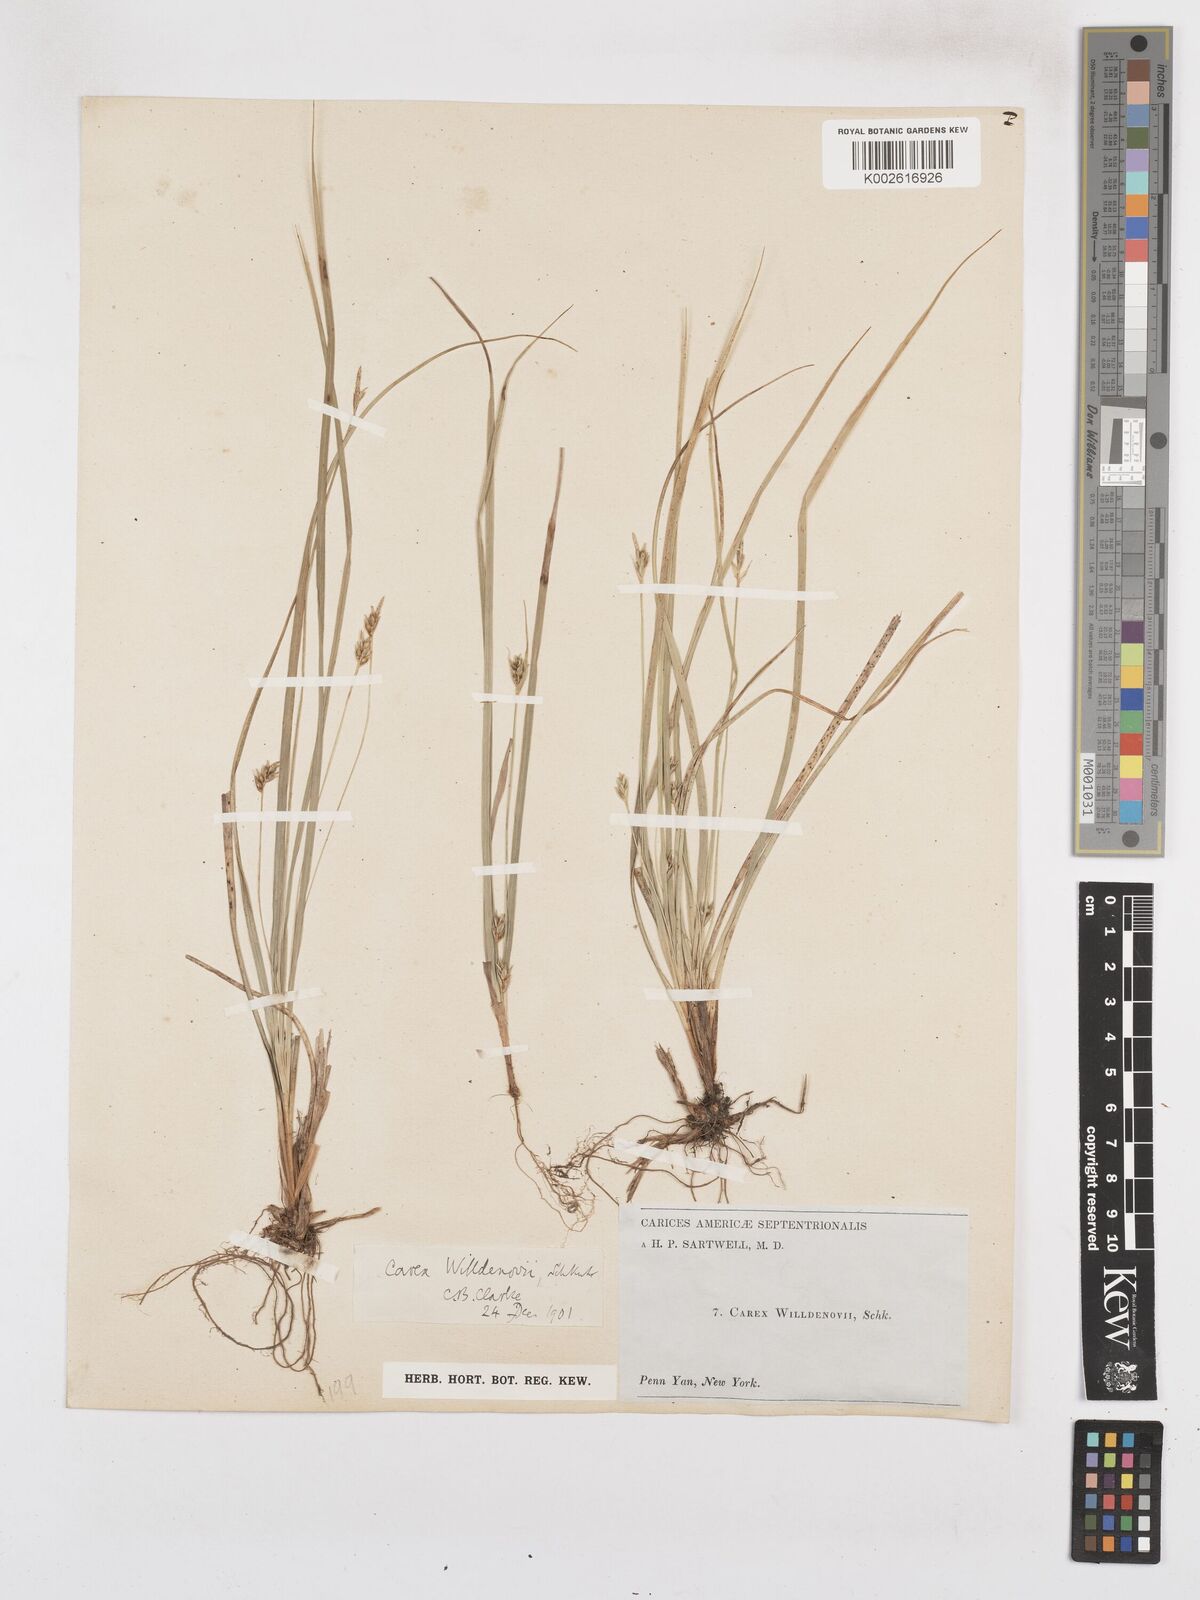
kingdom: Plantae
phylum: Tracheophyta
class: Liliopsida
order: Poales
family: Cyperaceae
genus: Carex
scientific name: Carex willdenowii
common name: Willdenow's sedge
